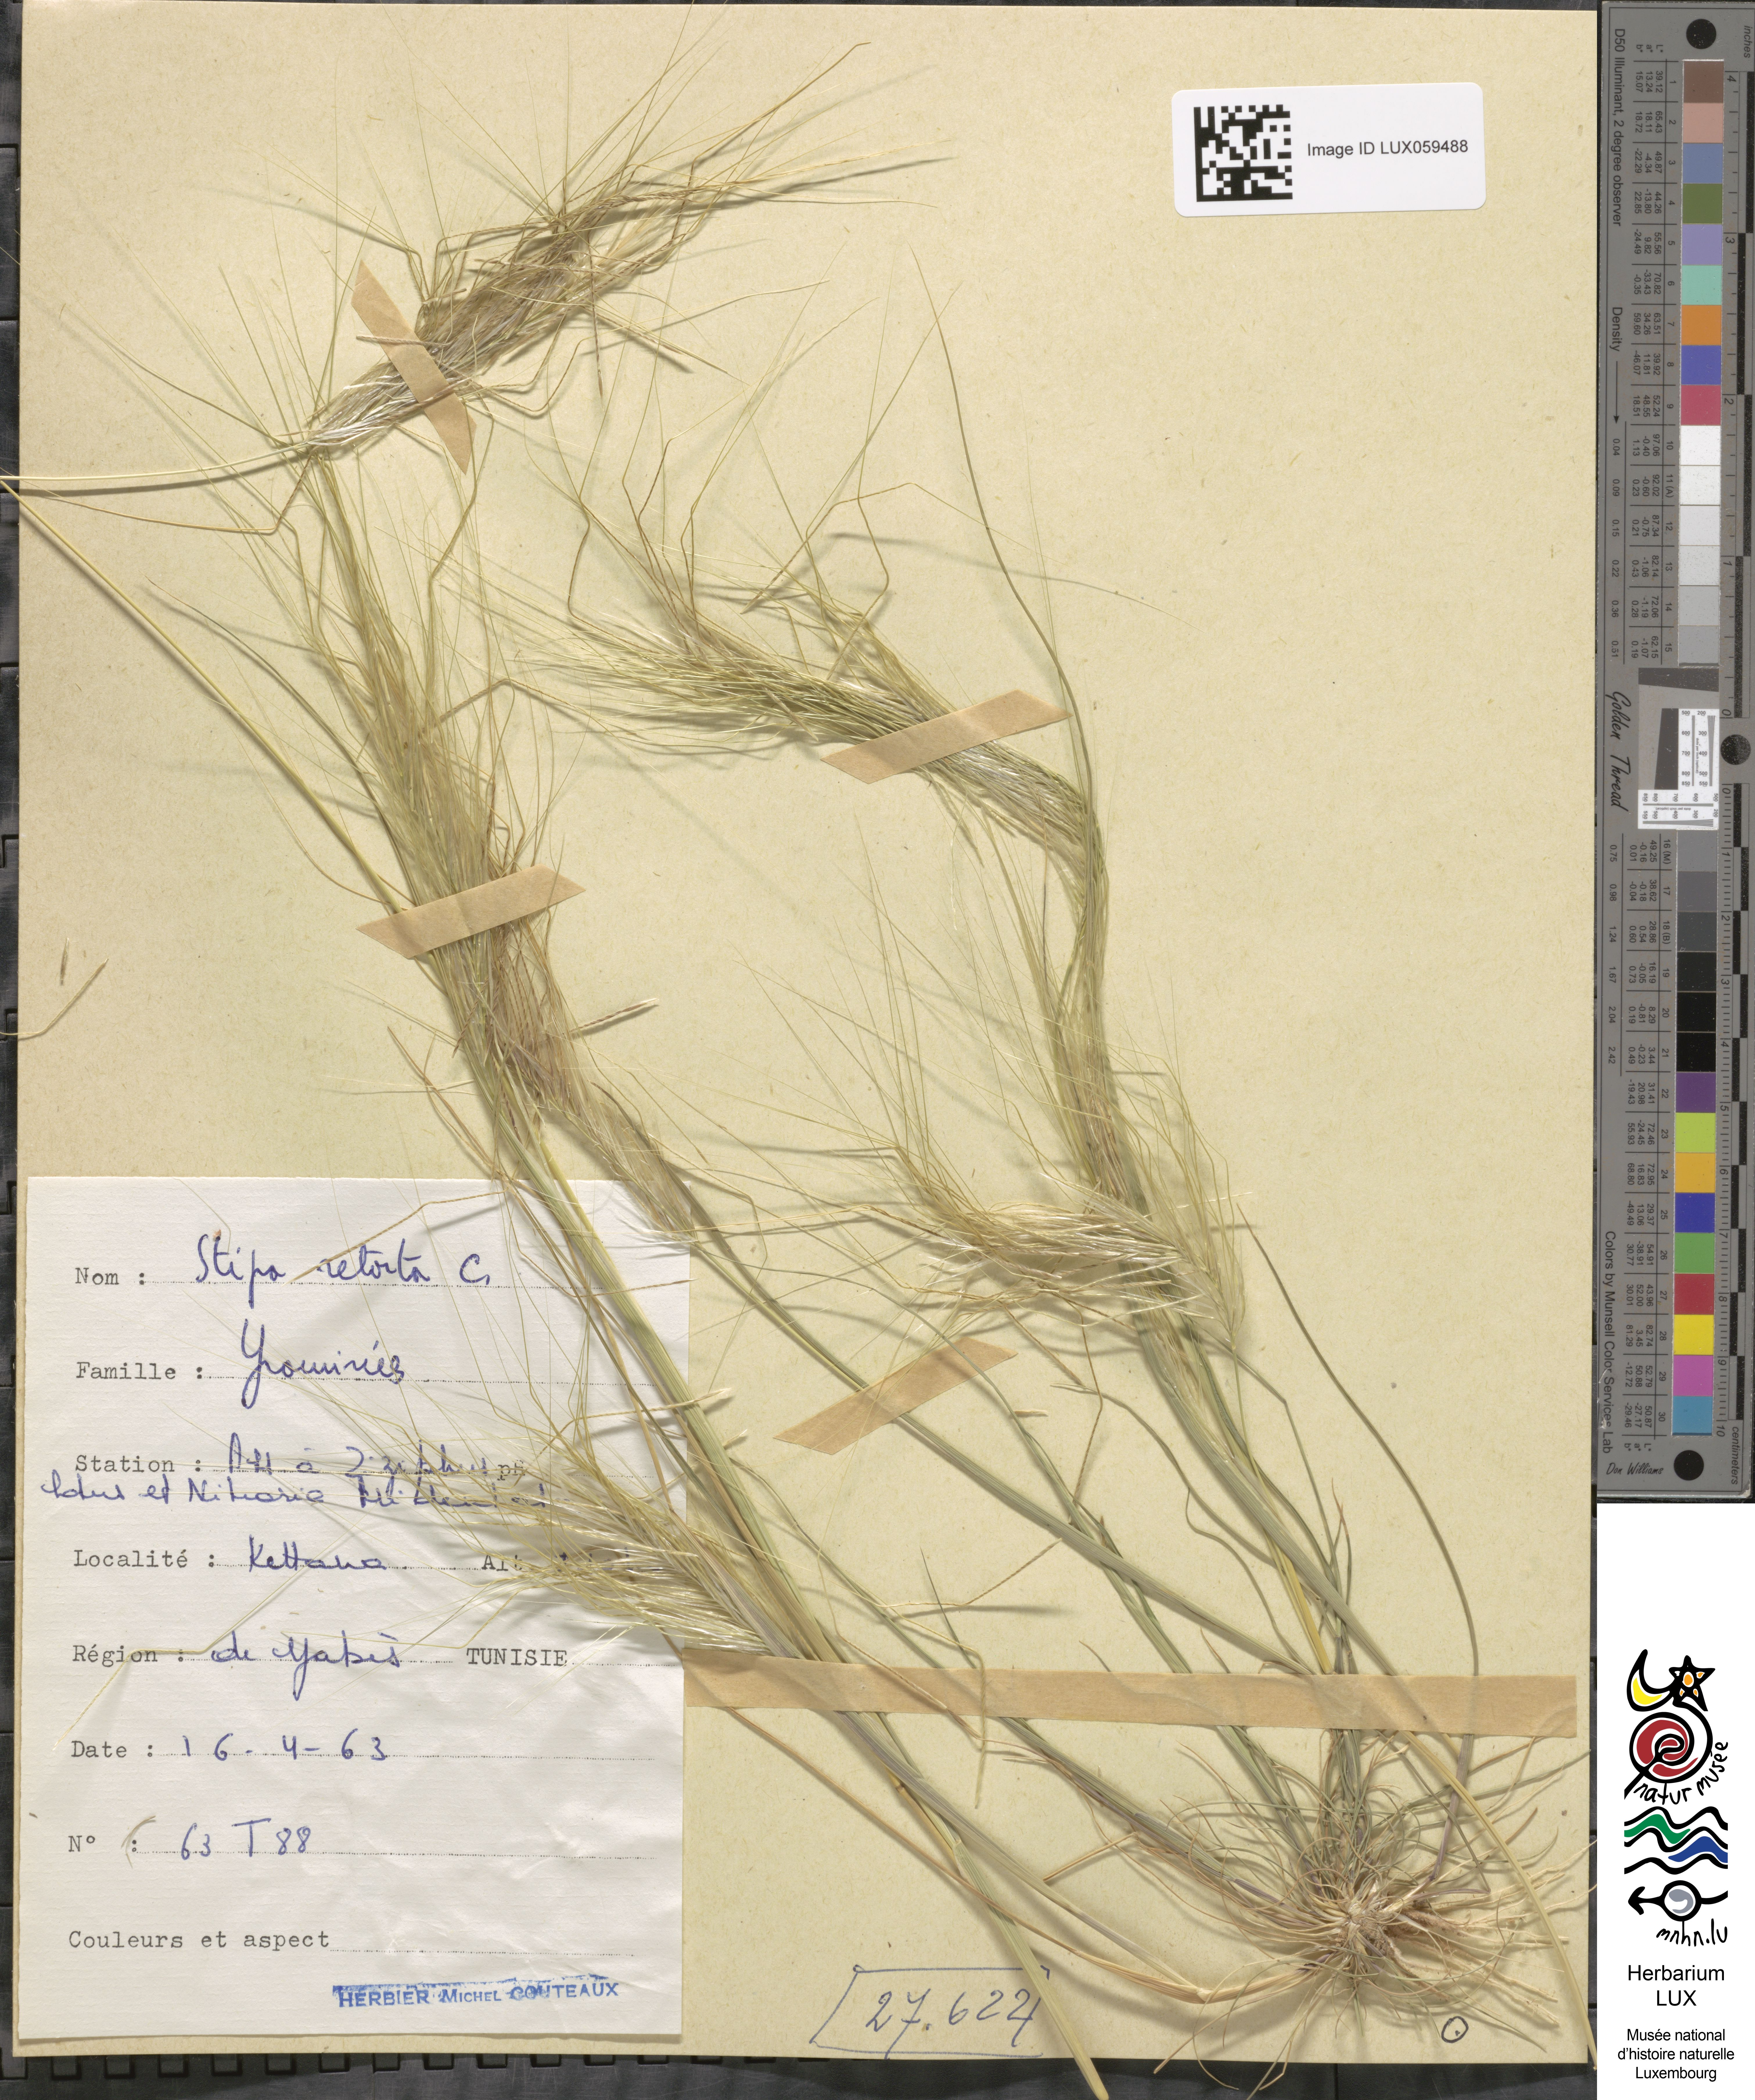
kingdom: Plantae
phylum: Tracheophyta
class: Liliopsida
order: Poales
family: Poaceae
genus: Stipellula
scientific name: Stipellula capensis
